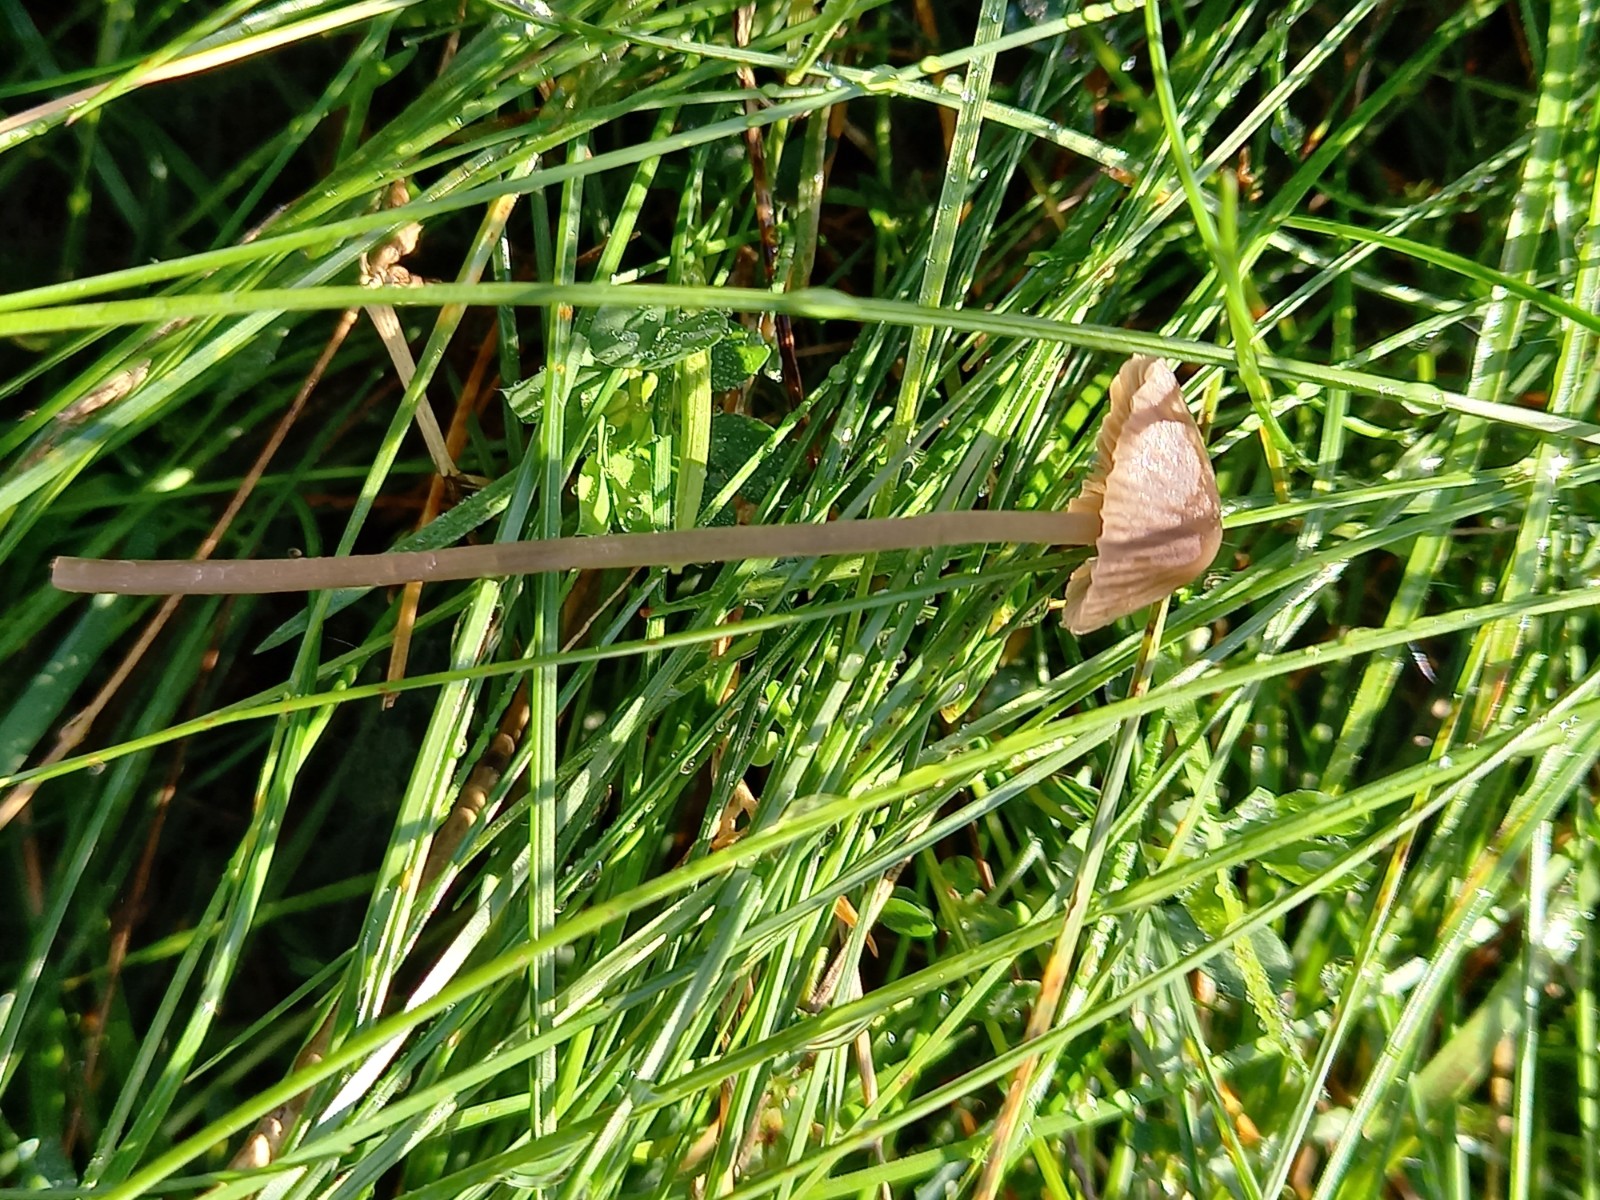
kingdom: Fungi
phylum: Basidiomycota
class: Agaricomycetes
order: Agaricales
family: Mycenaceae
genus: Mycena
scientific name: Mycena
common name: huesvamp
